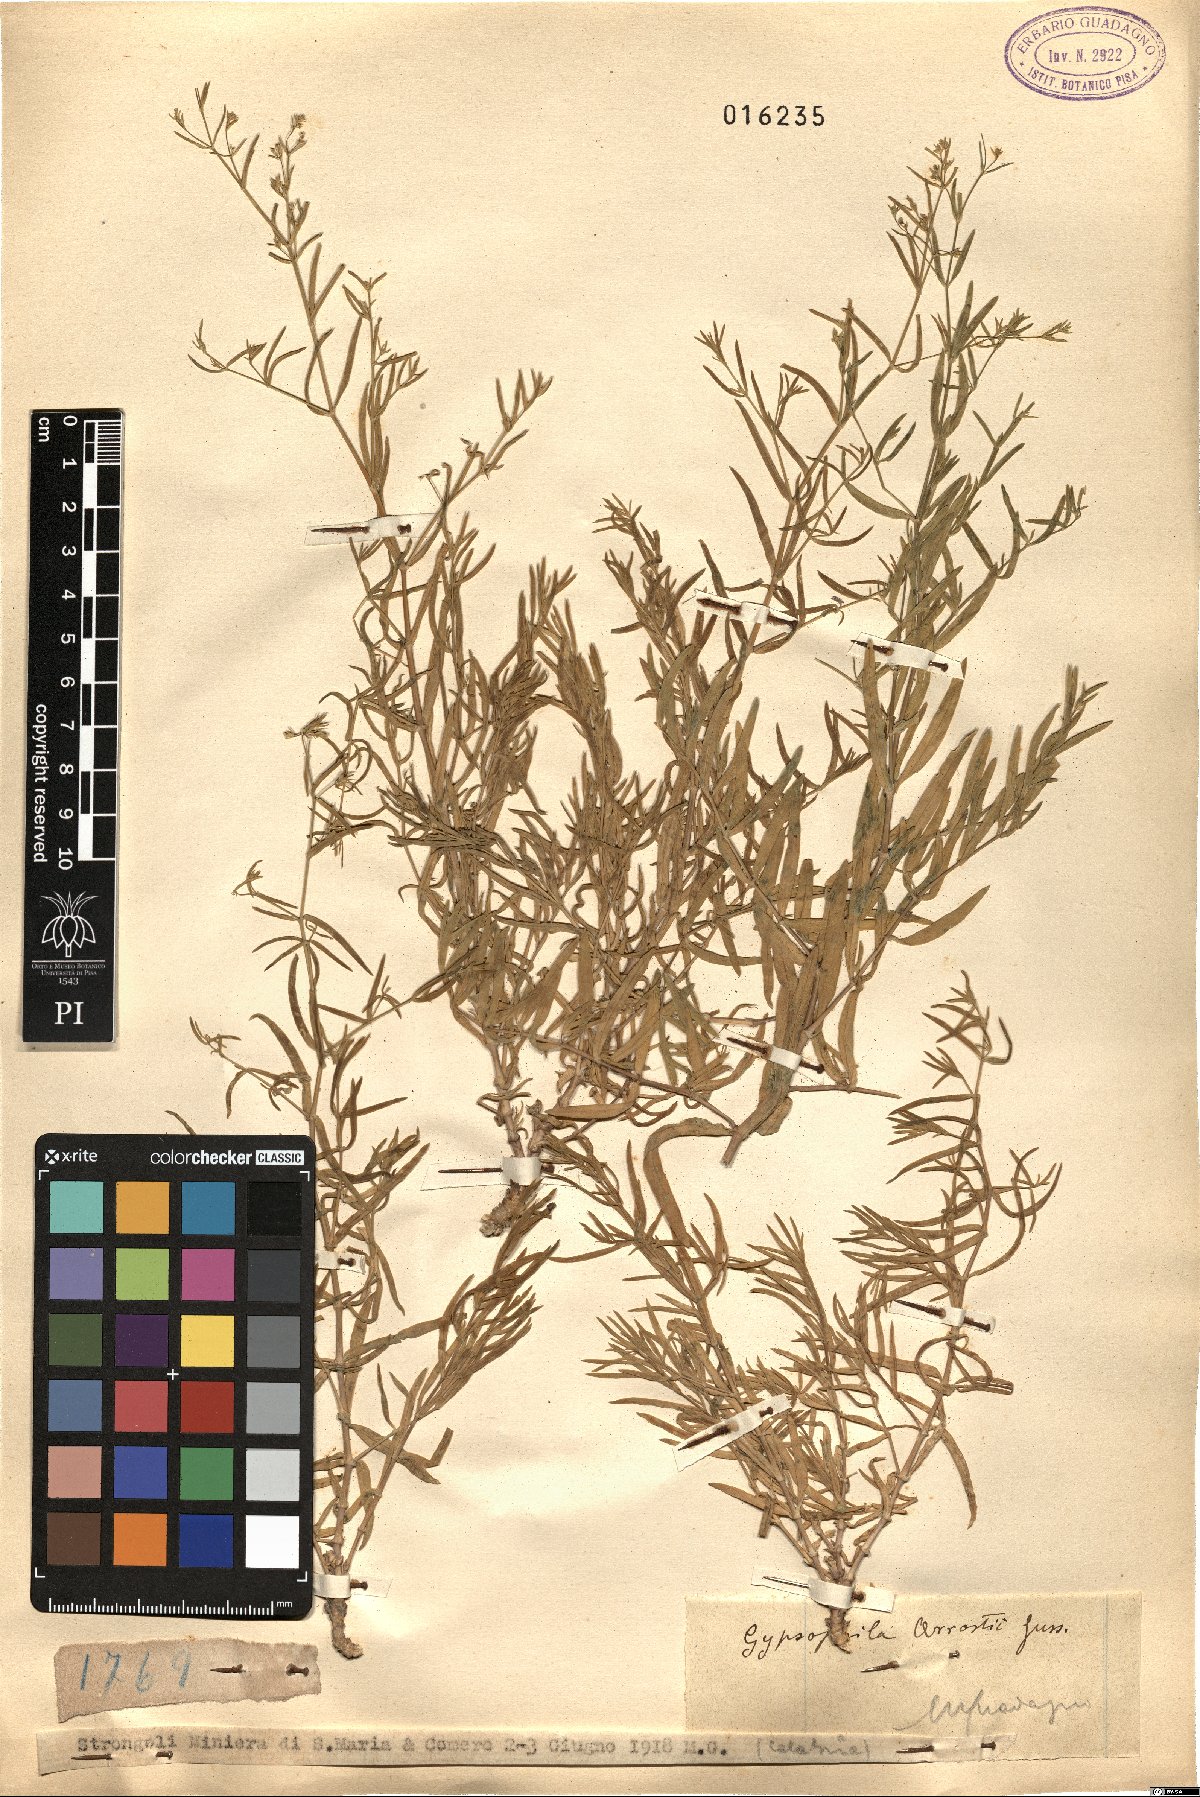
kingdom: Plantae
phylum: Tracheophyta
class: Magnoliopsida
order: Caryophyllales
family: Caryophyllaceae
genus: Gypsophila
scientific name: Gypsophila arrostii
